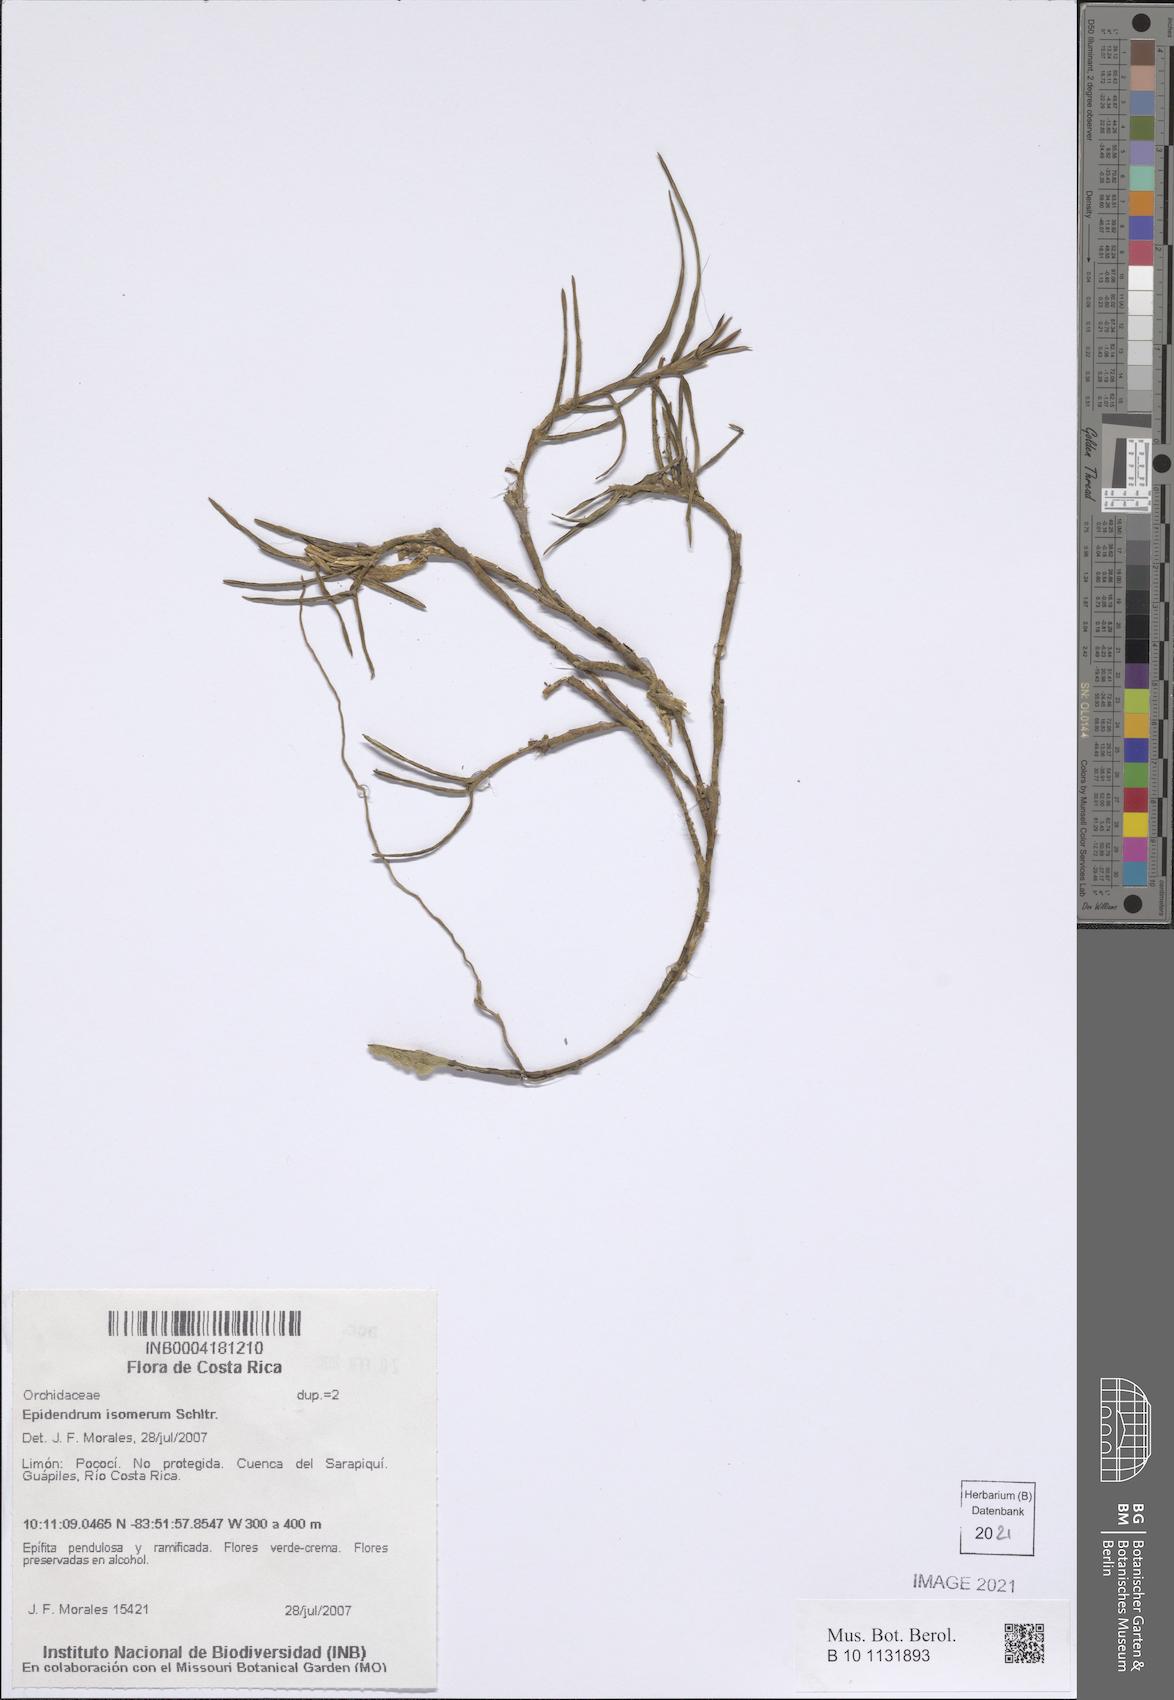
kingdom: Plantae
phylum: Tracheophyta
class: Liliopsida
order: Asparagales
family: Orchidaceae
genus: Epidendrum
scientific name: Epidendrum isomerum
